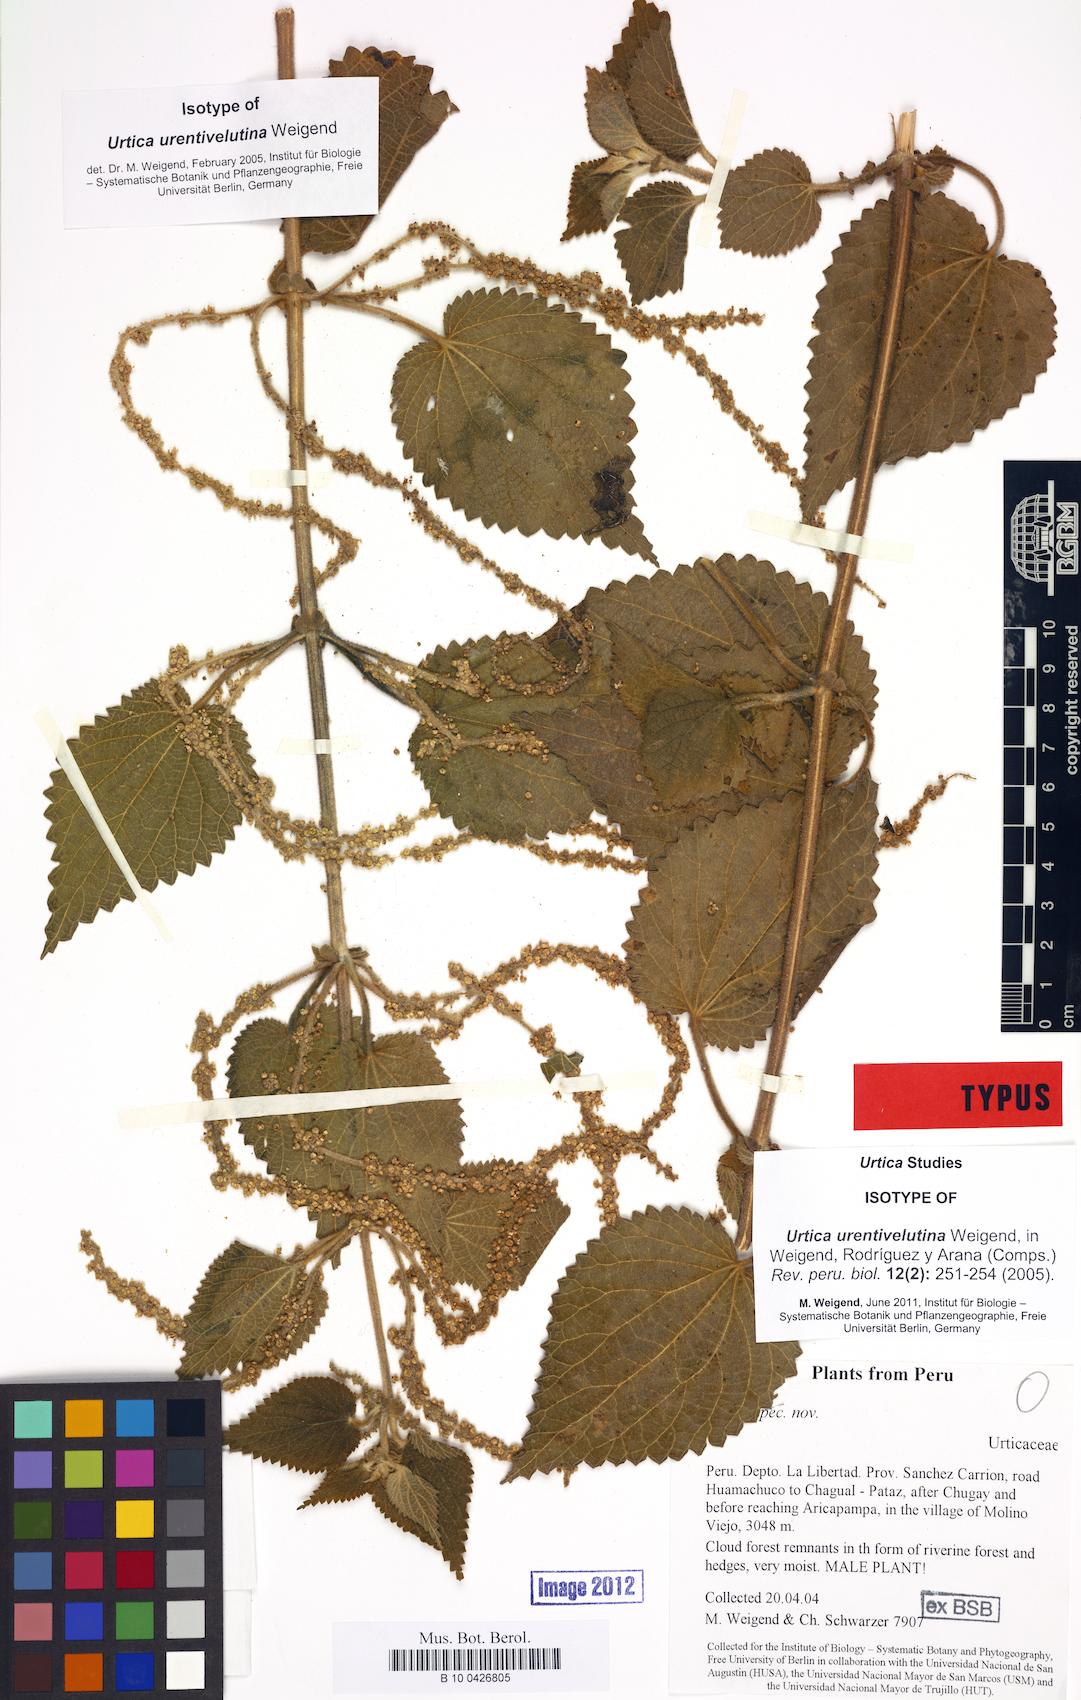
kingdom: Plantae
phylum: Tracheophyta
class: Magnoliopsida
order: Rosales
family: Urticaceae
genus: Urtica
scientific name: Urtica urentivelutina
